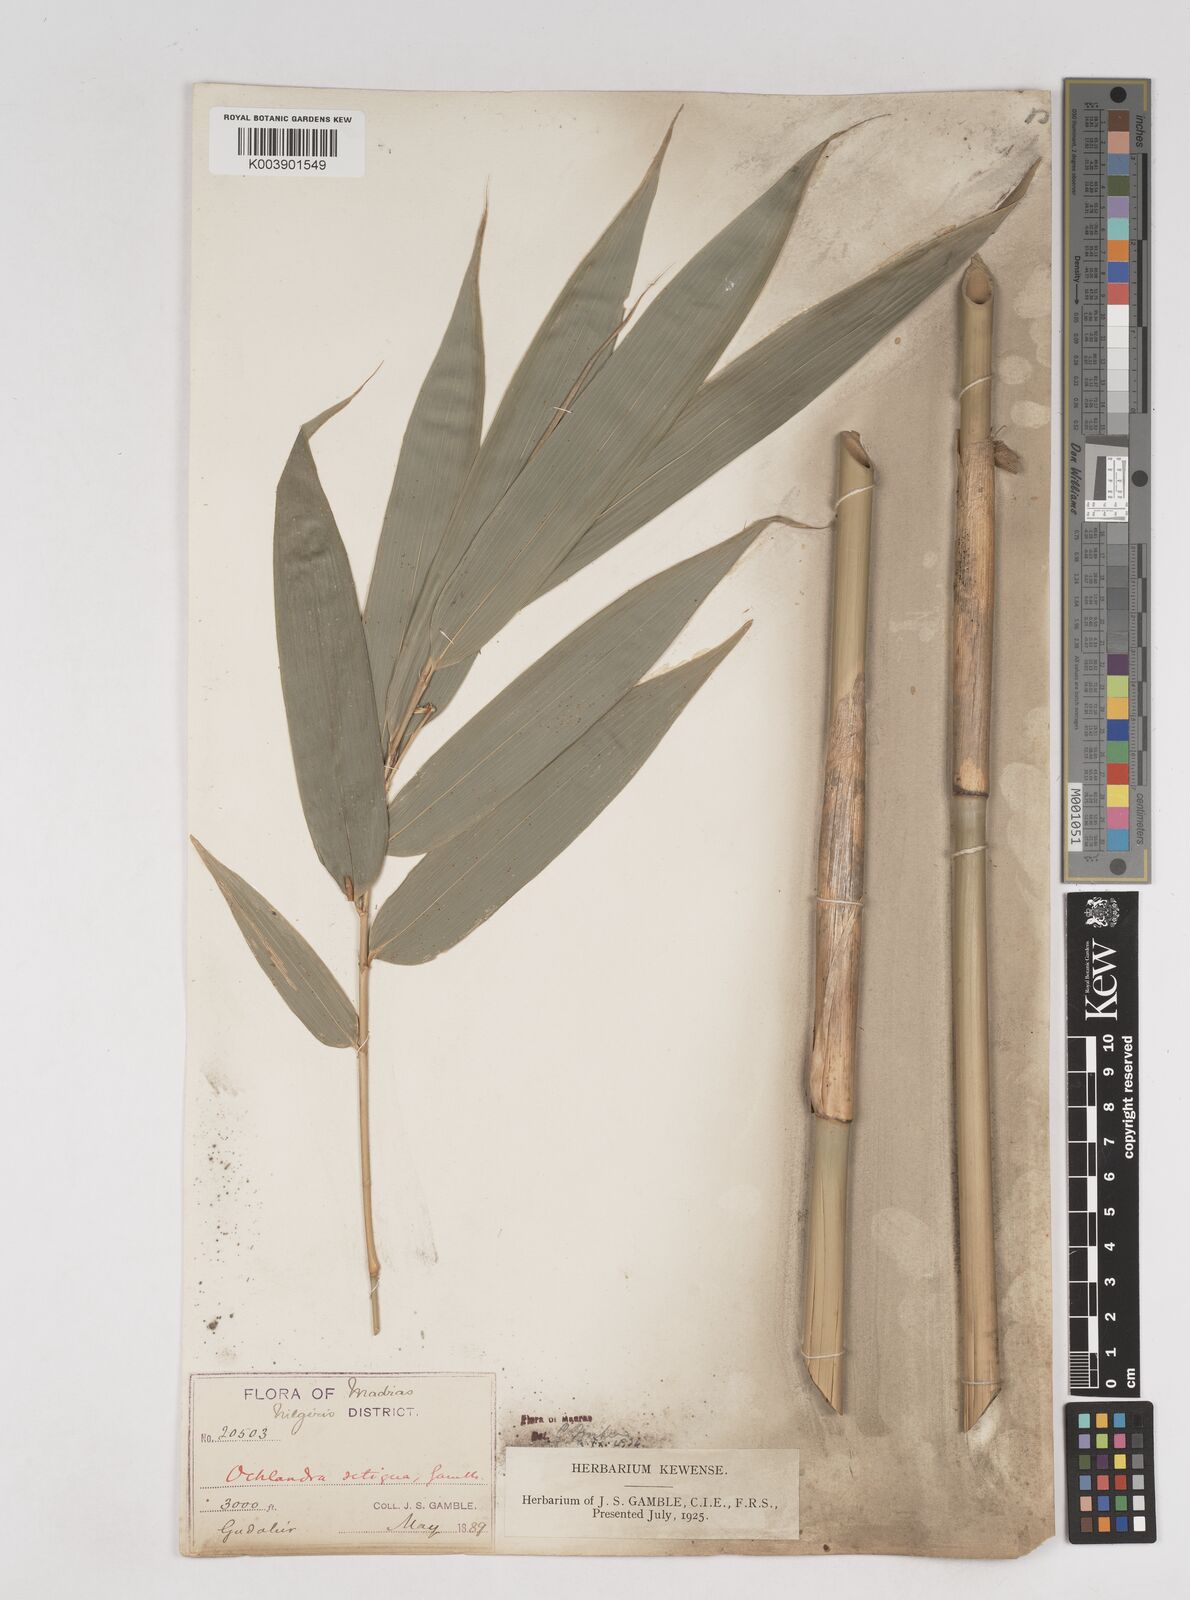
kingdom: Plantae
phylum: Tracheophyta
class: Liliopsida
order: Poales
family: Poaceae
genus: Ochlandra
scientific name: Ochlandra setigera
